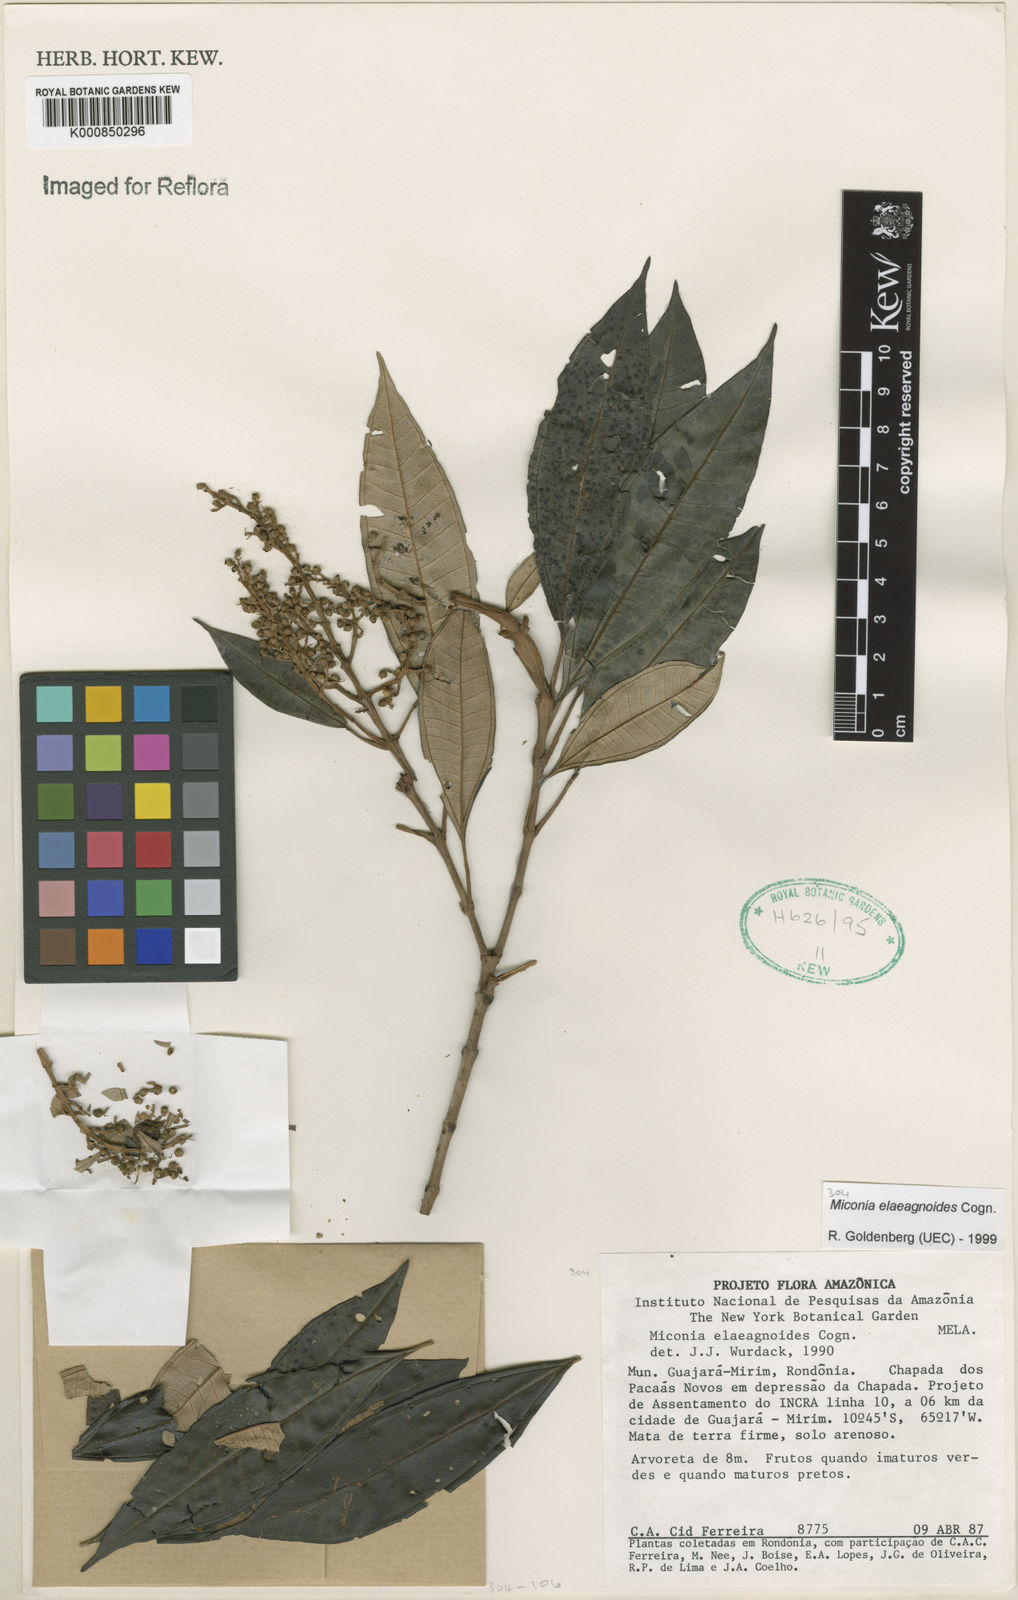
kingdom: Plantae
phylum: Tracheophyta
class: Magnoliopsida
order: Myrtales
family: Melastomataceae
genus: Miconia
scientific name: Miconia
